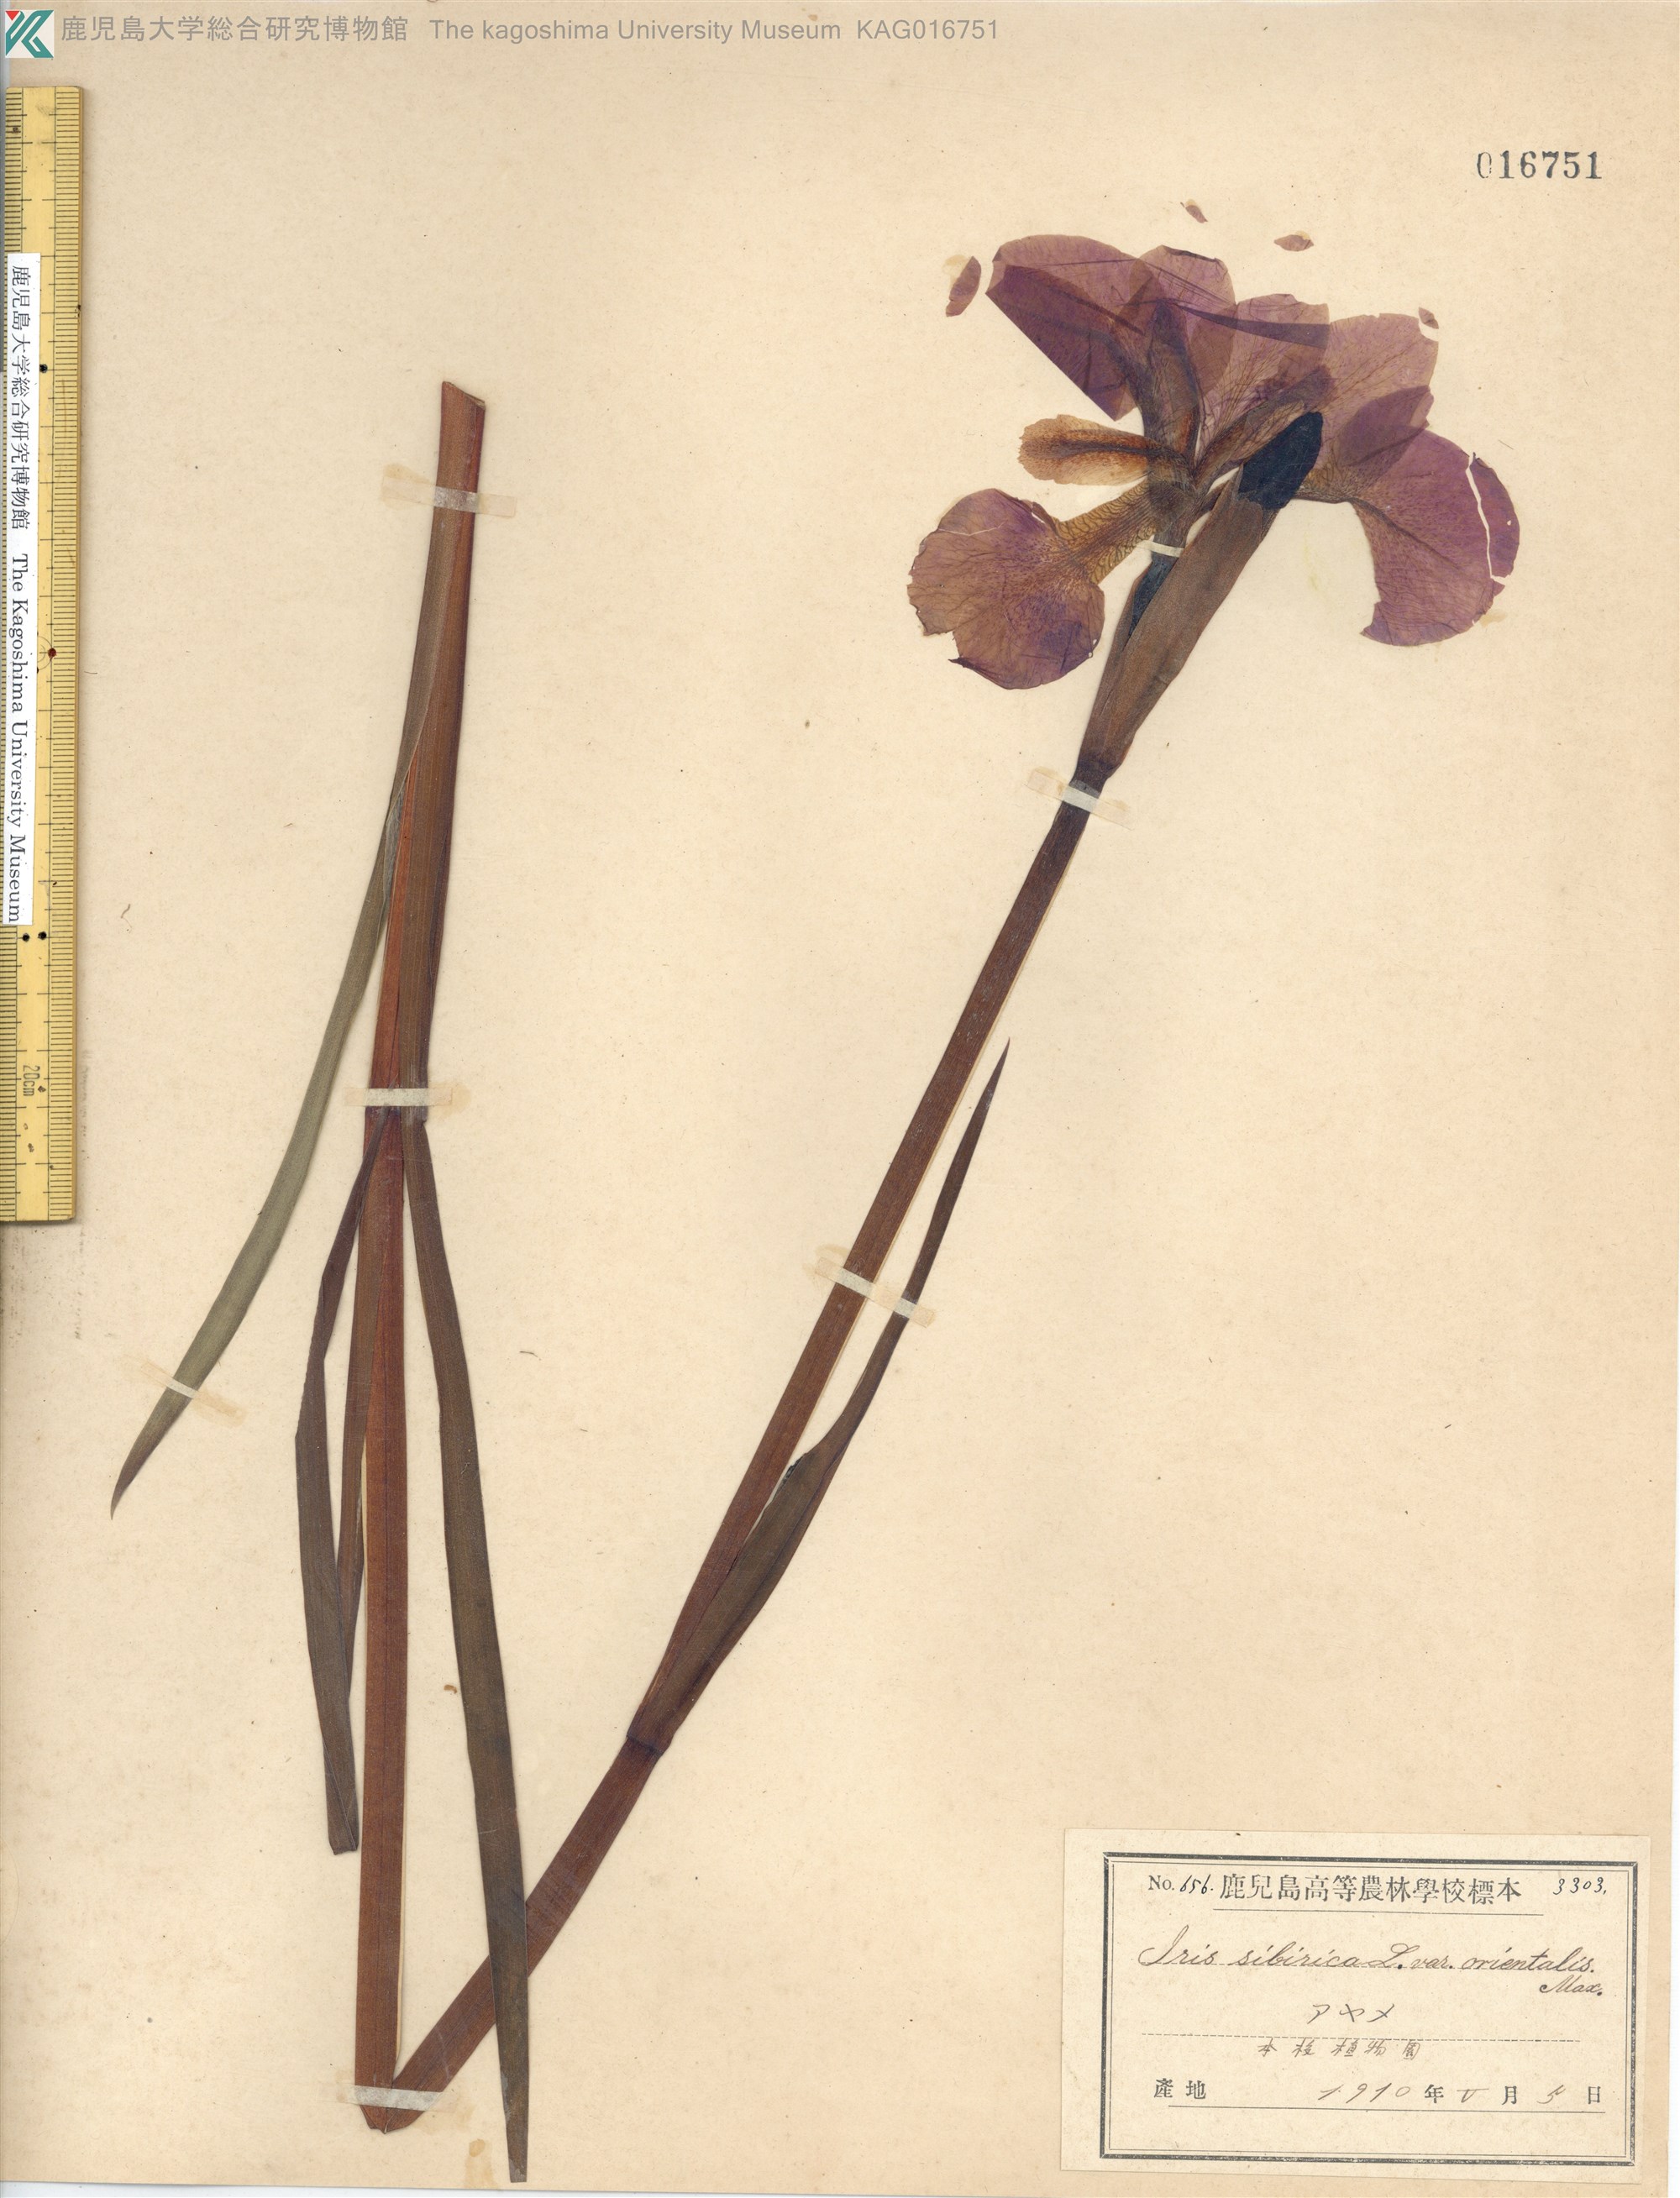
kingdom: Plantae
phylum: Tracheophyta
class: Liliopsida
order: Asparagales
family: Iridaceae
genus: Iris
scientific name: Iris sanguinea
